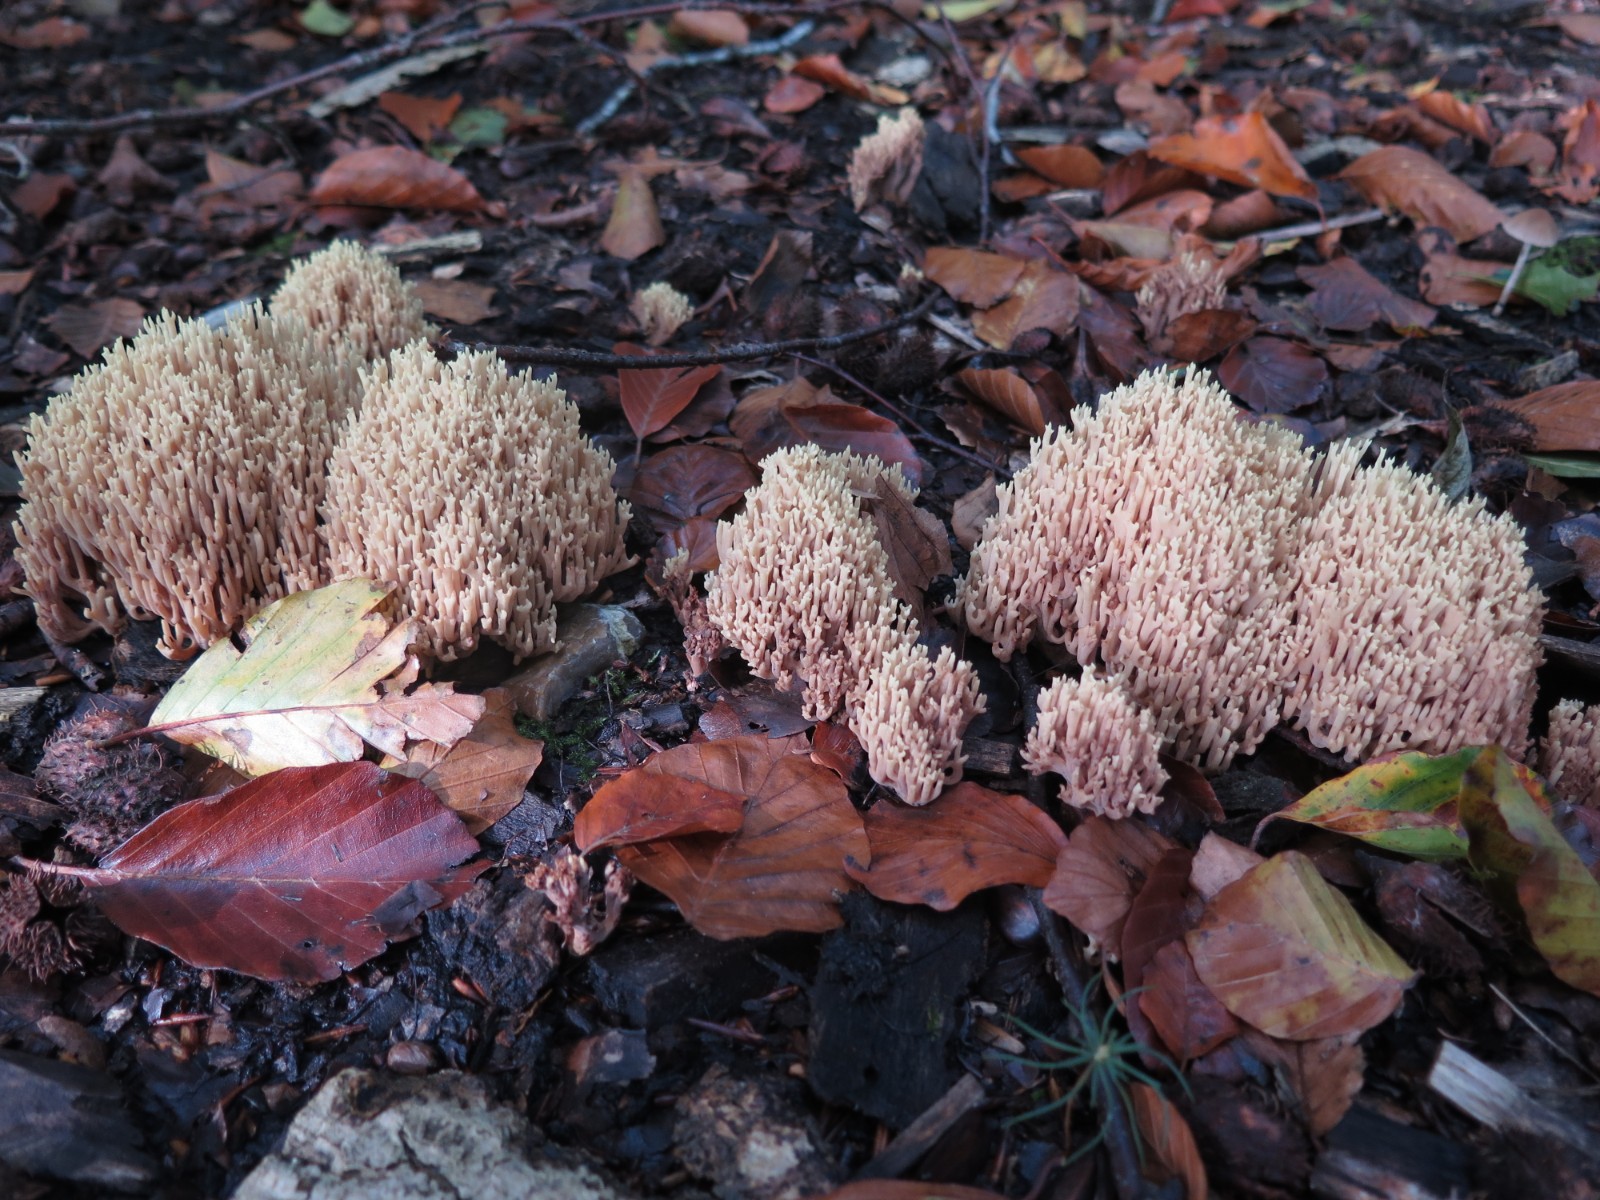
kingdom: Fungi
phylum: Basidiomycota
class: Agaricomycetes
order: Gomphales
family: Gomphaceae
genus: Ramaria
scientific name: Ramaria stricta
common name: rank koralsvamp
